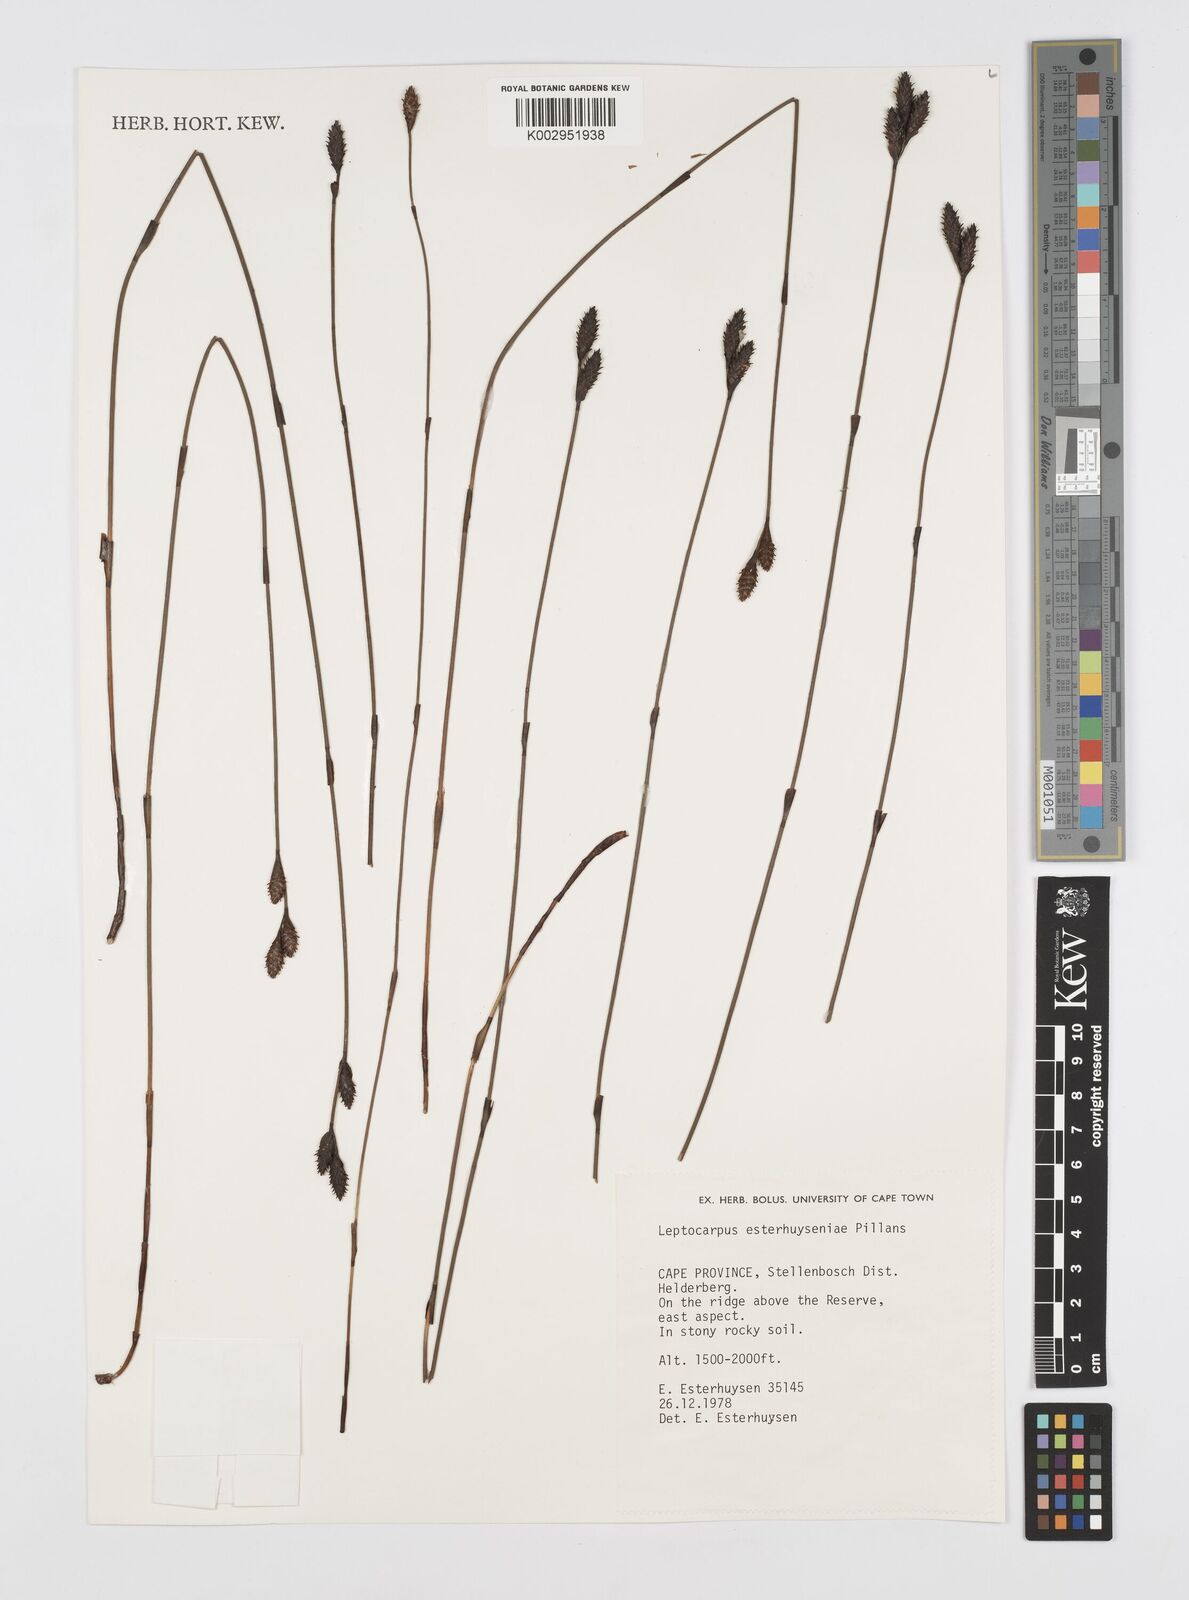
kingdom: Plantae
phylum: Tracheophyta
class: Liliopsida
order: Poales
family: Restionaceae
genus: Restio
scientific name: Restio esterhuyseniae
